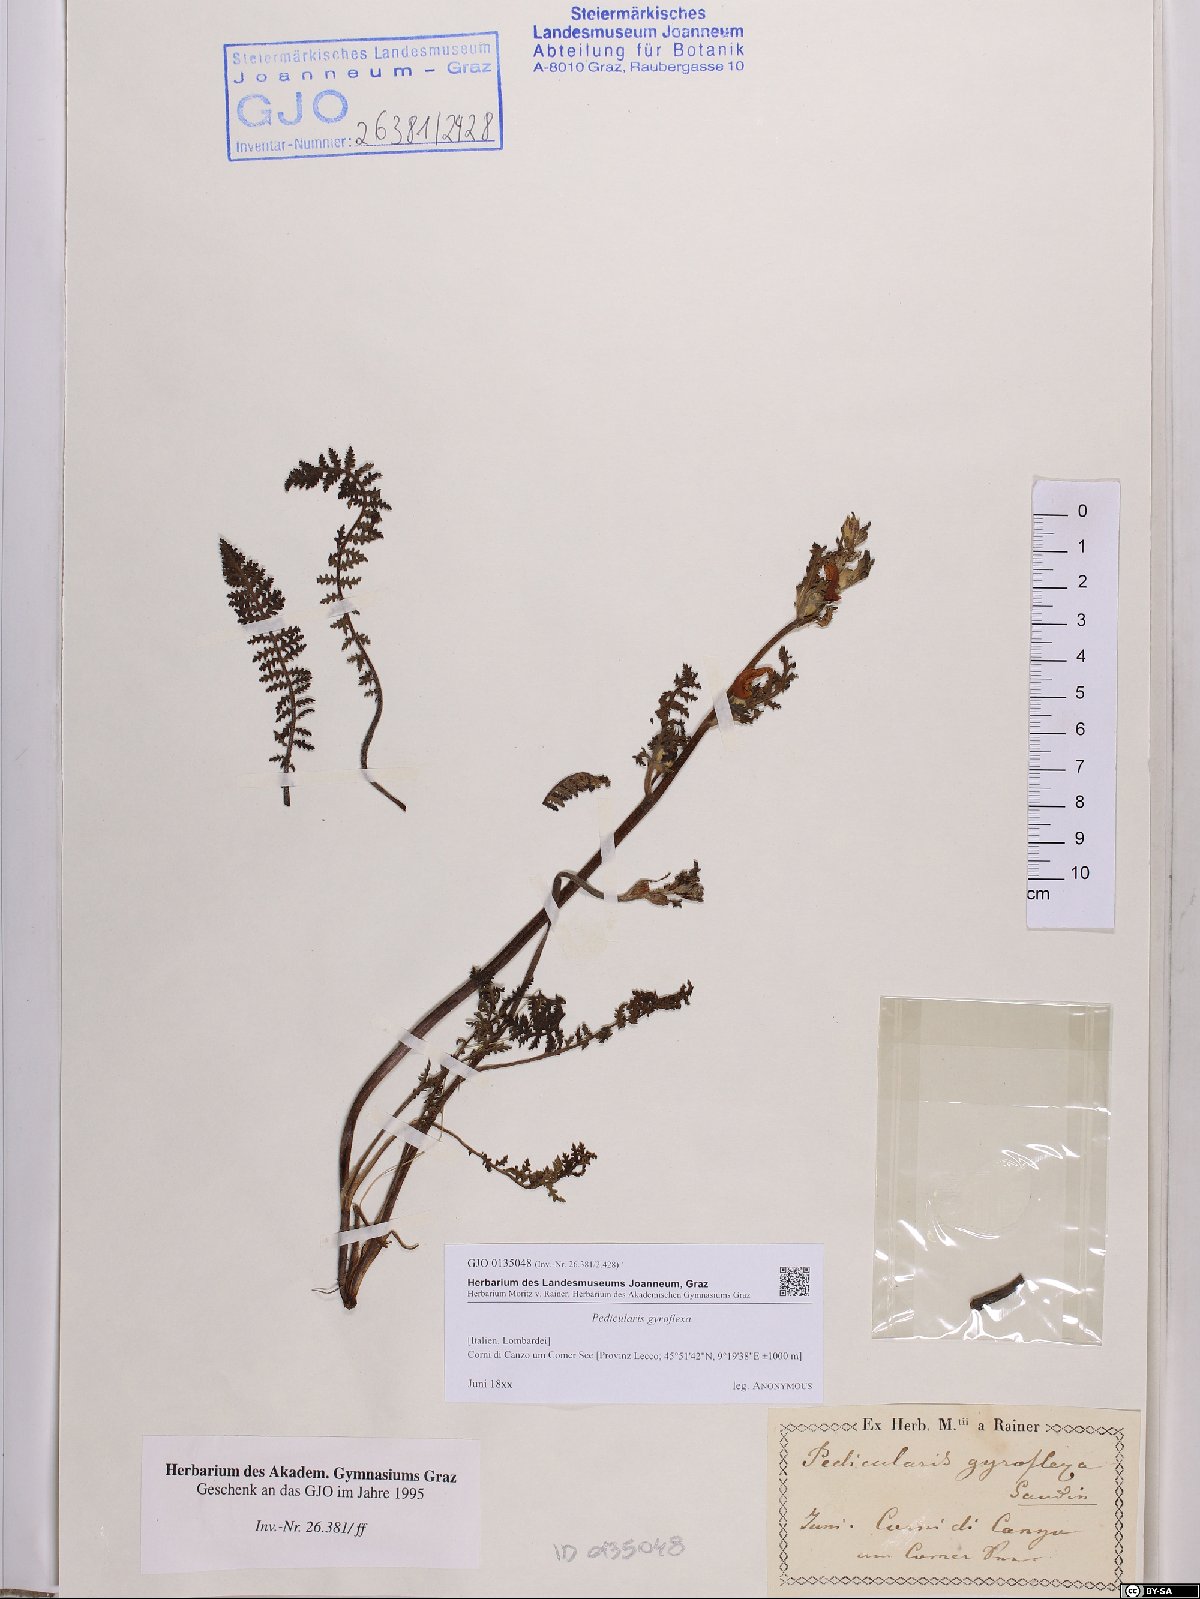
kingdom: Plantae
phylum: Tracheophyta
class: Magnoliopsida
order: Lamiales
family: Orobanchaceae
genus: Pedicularis
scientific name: Pedicularis gyroflexa
